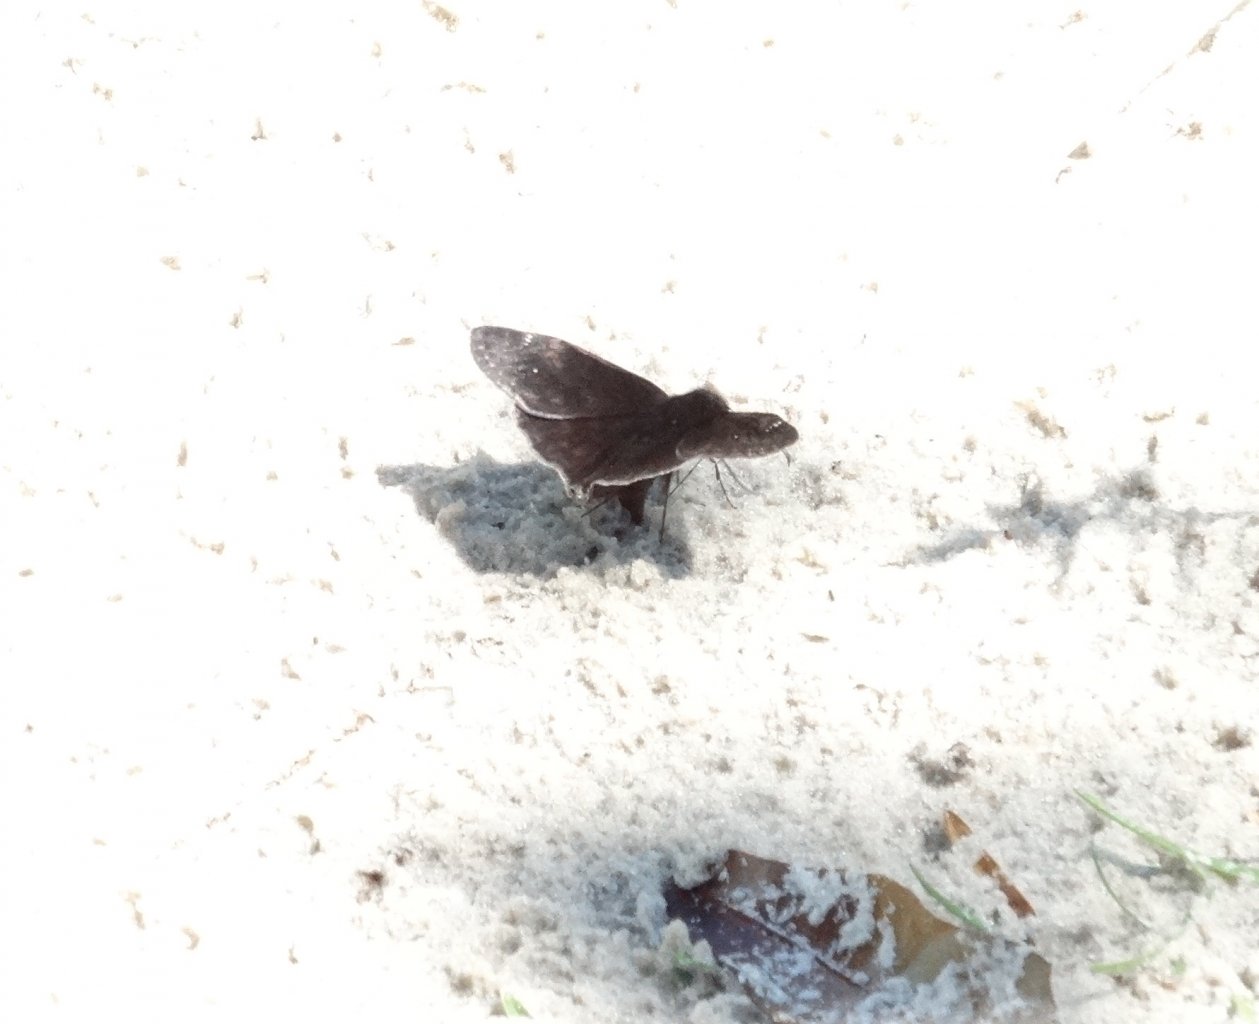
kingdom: Animalia
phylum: Arthropoda
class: Insecta
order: Lepidoptera
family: Hesperiidae
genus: Erynnis
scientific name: Erynnis zarucco
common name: Zarucco Duskywing
